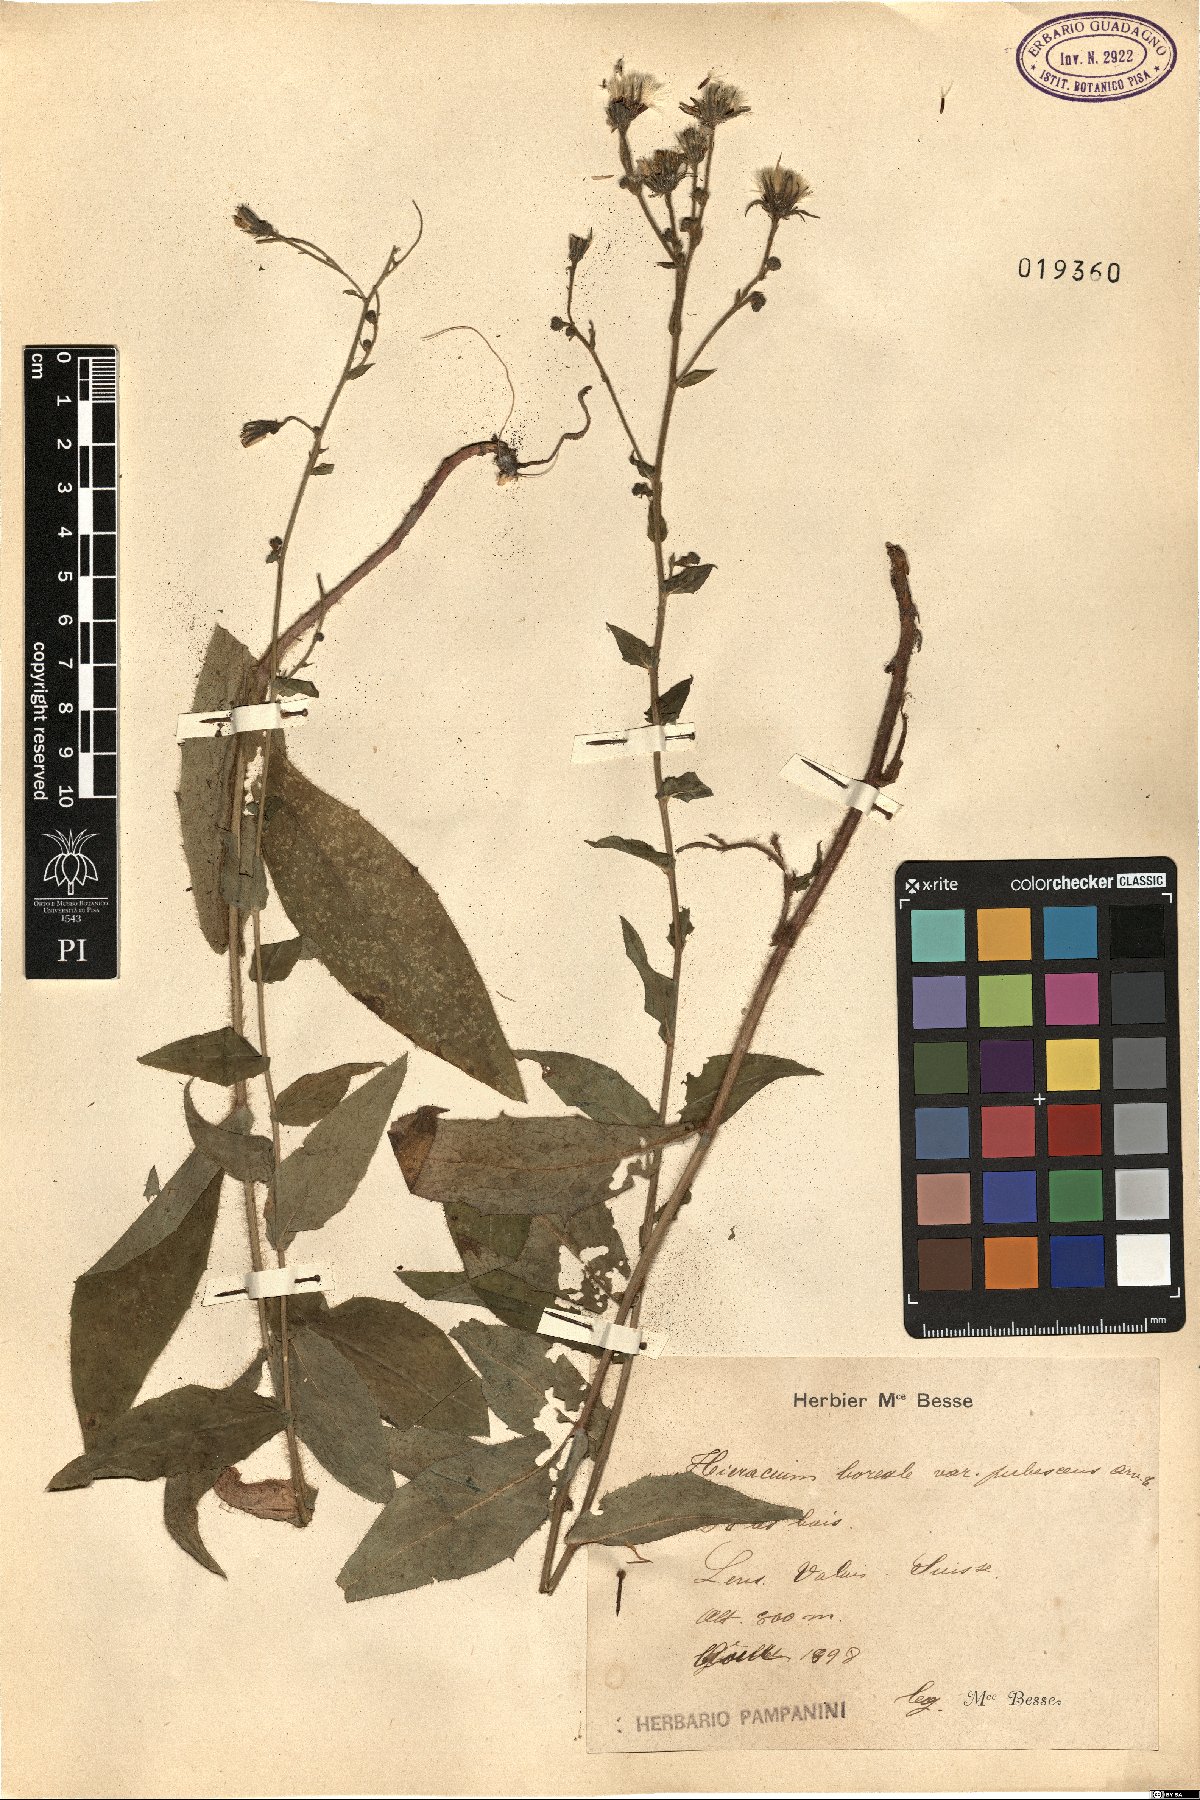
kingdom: Plantae
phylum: Tracheophyta
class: Magnoliopsida
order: Asterales
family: Asteraceae
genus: Hieracium
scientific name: Hieracium sabaudum
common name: New england hawkweed
